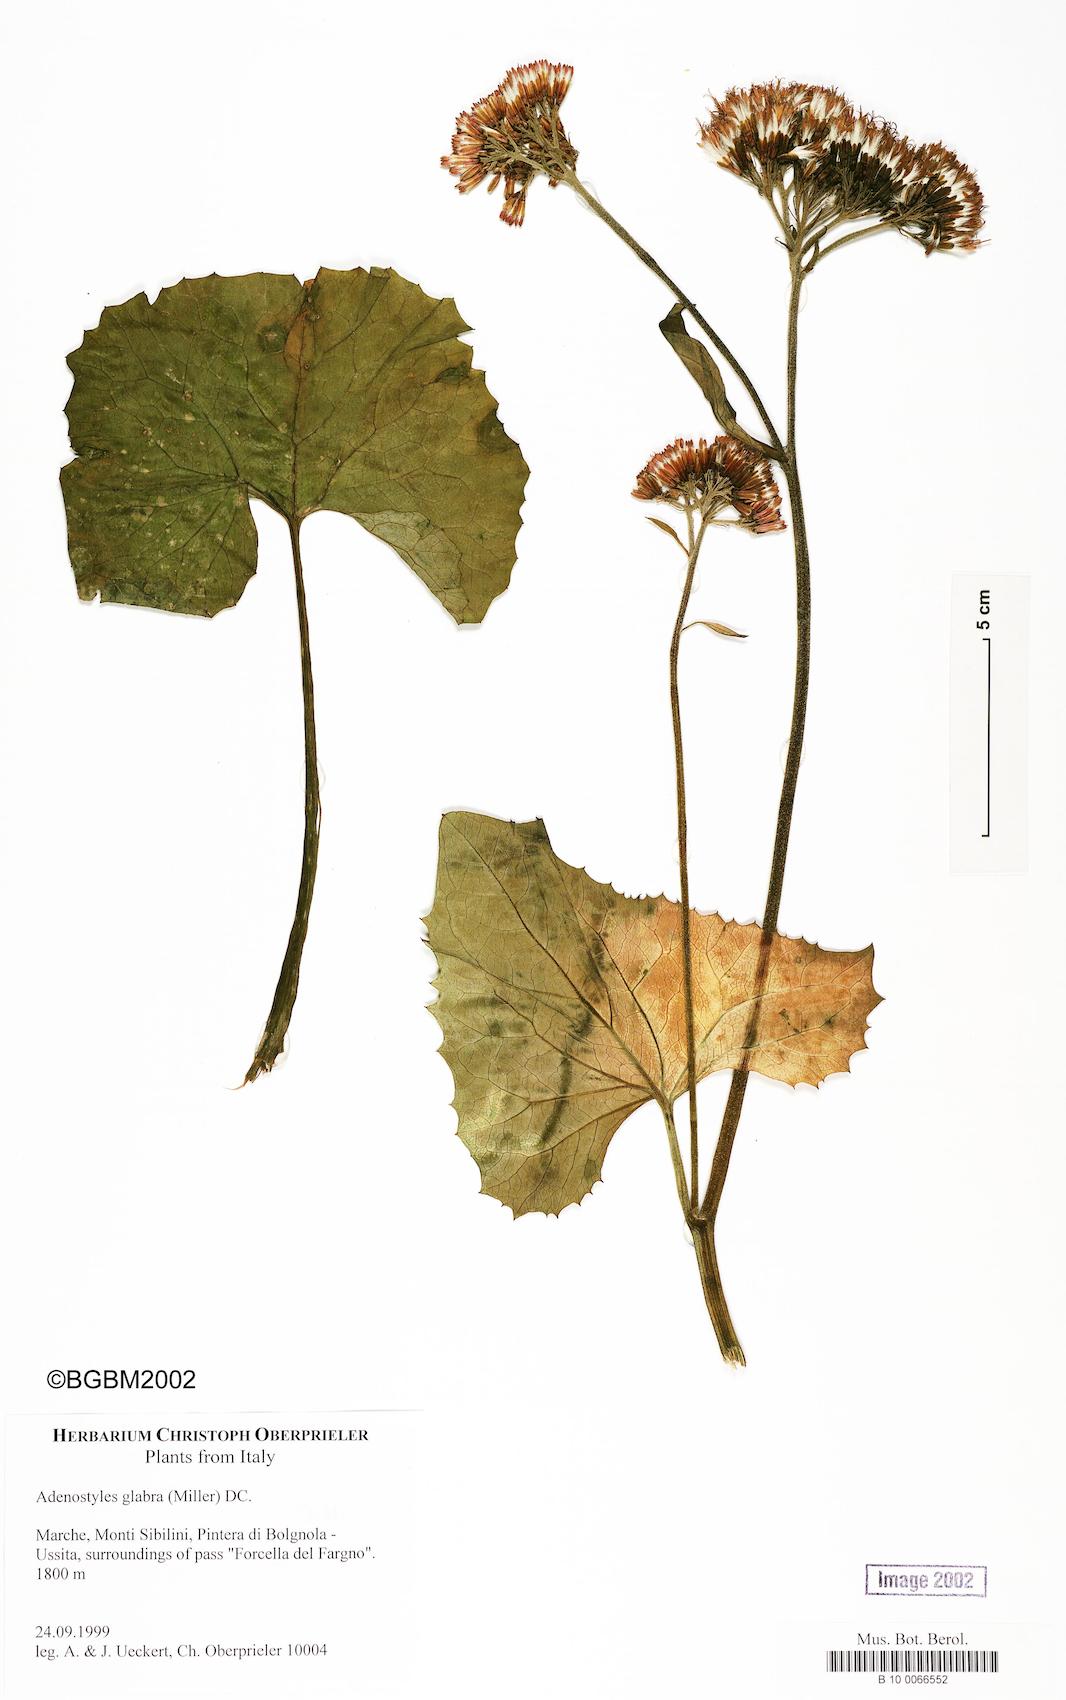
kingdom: Plantae
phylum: Tracheophyta
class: Magnoliopsida
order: Asterales
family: Asteraceae
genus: Adenostyles
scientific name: Adenostyles alpina
